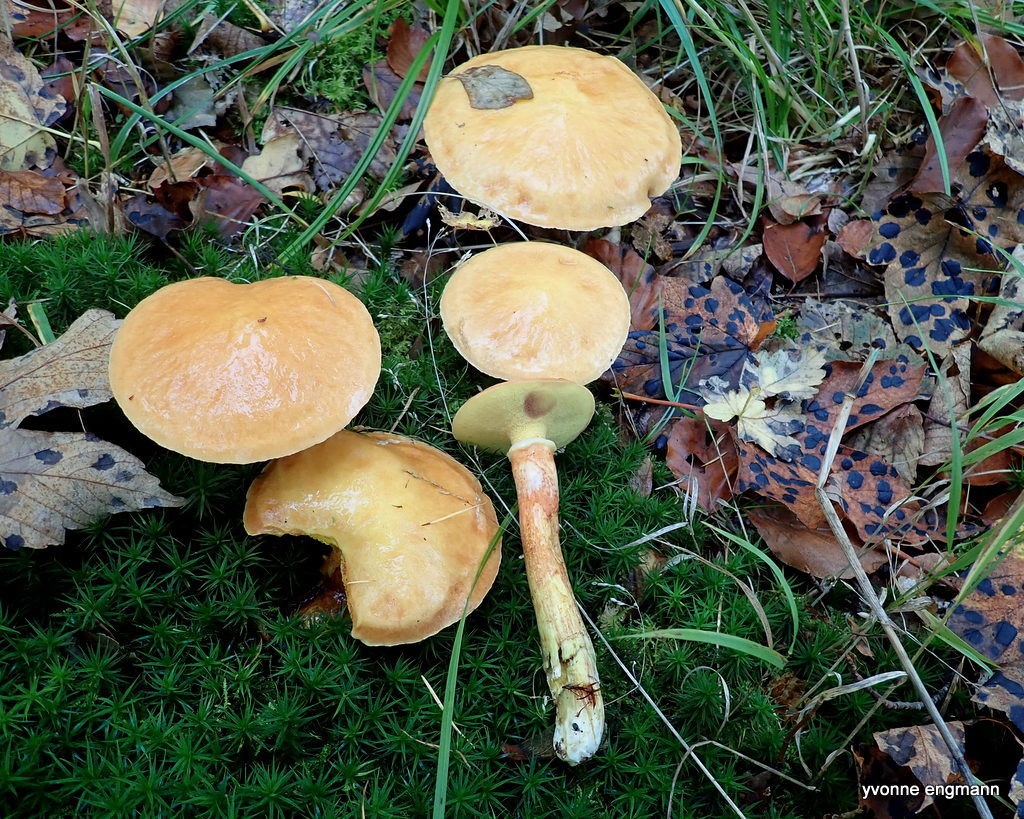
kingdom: Fungi
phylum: Basidiomycota
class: Agaricomycetes
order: Boletales
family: Suillaceae
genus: Suillus
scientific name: Suillus grevillei
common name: lærke-slimrørhat
